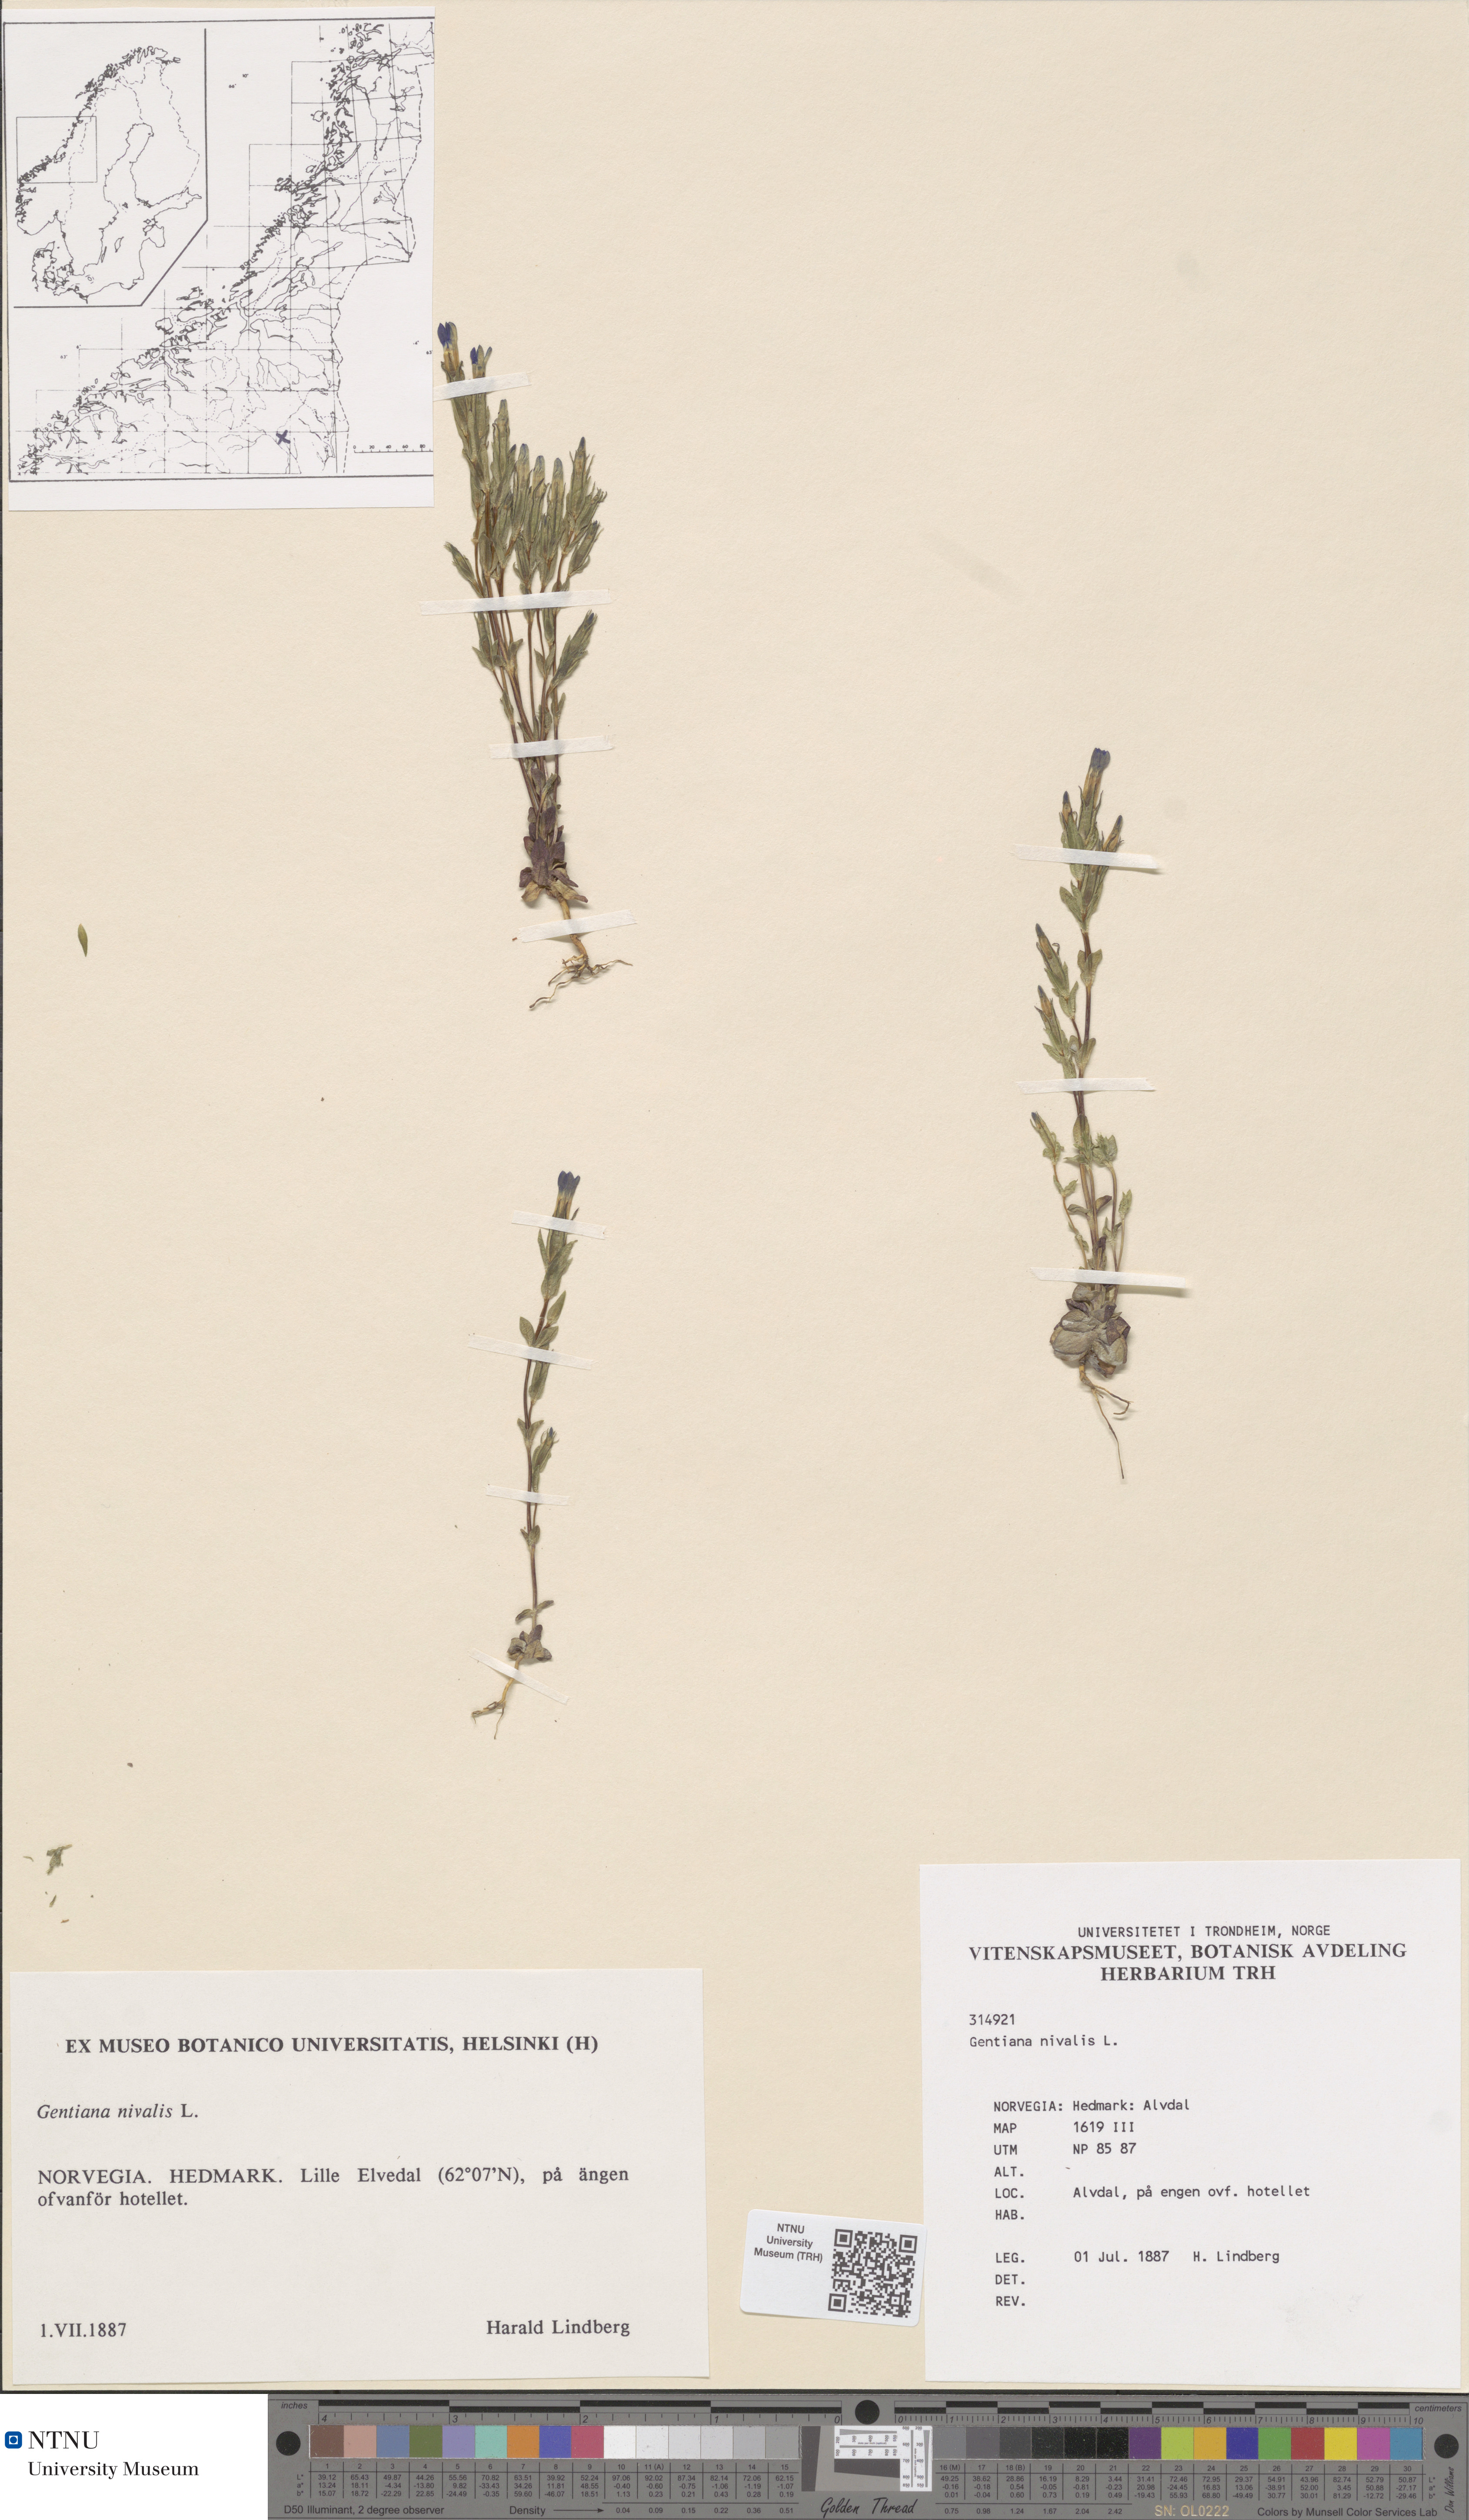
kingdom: Plantae
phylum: Tracheophyta
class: Magnoliopsida
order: Gentianales
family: Gentianaceae
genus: Gentiana
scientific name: Gentiana nivalis
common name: Alpine gentian
